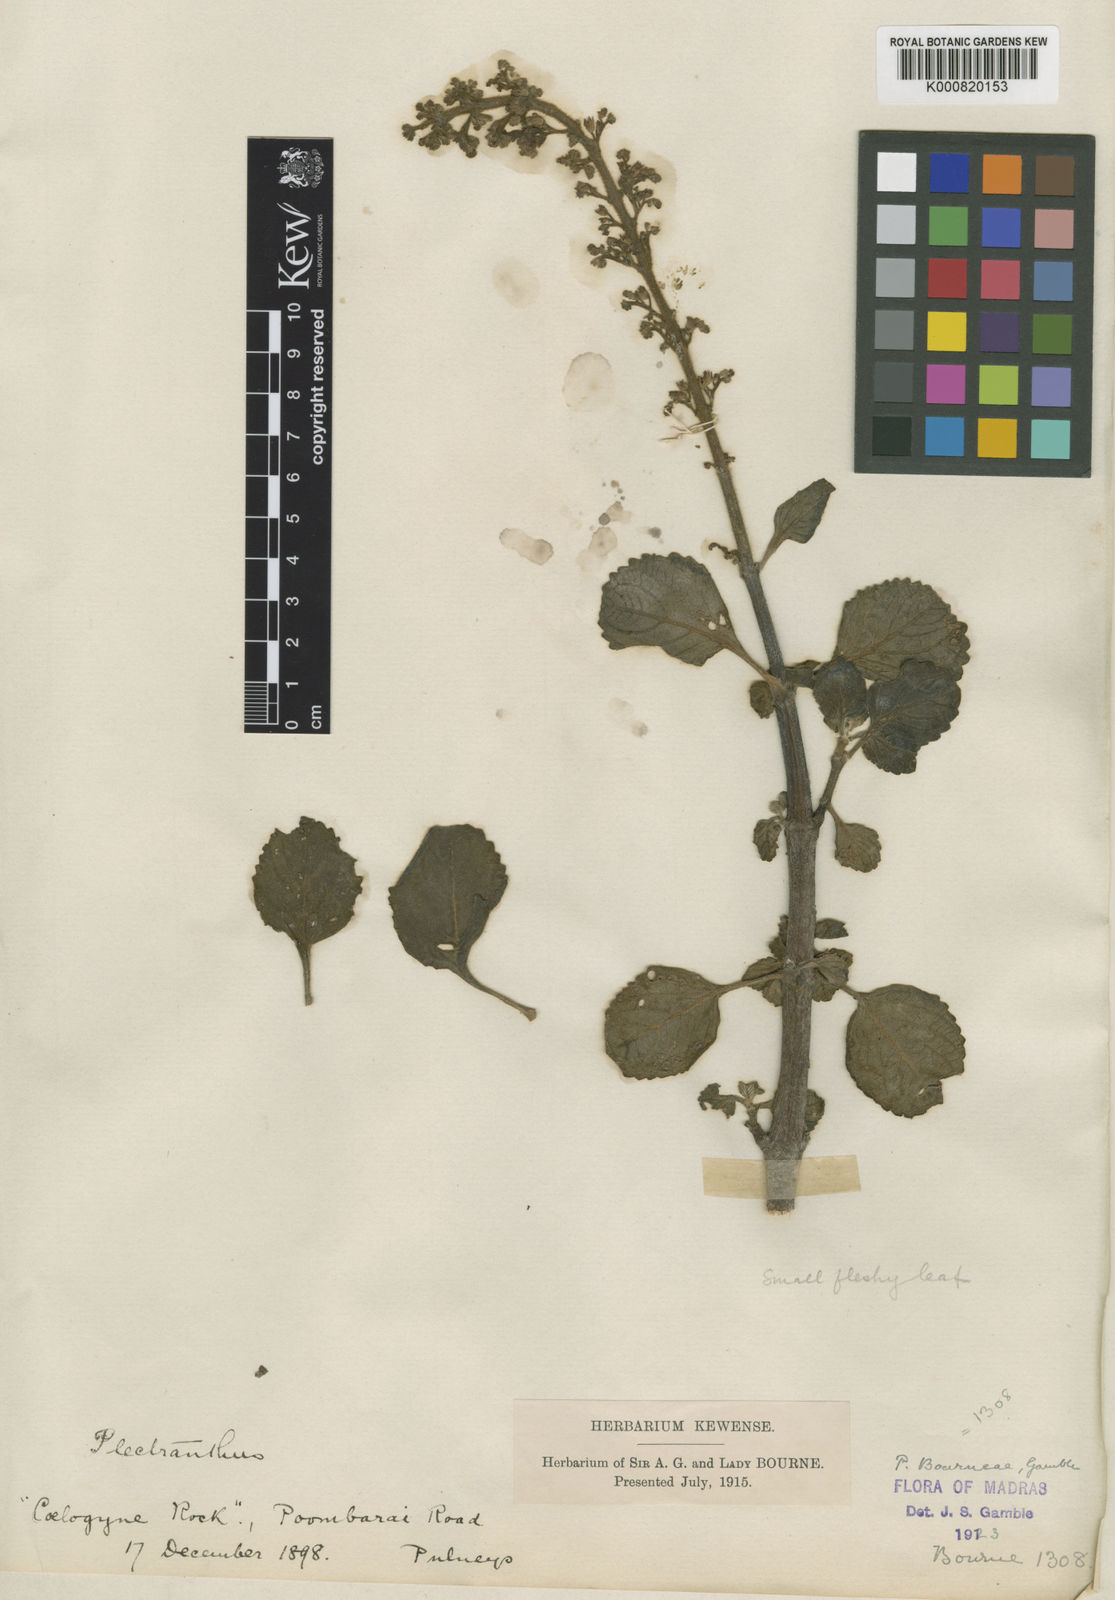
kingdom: Plantae
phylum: Tracheophyta
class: Magnoliopsida
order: Lamiales
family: Lamiaceae
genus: Coleus
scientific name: Coleus bourneae
